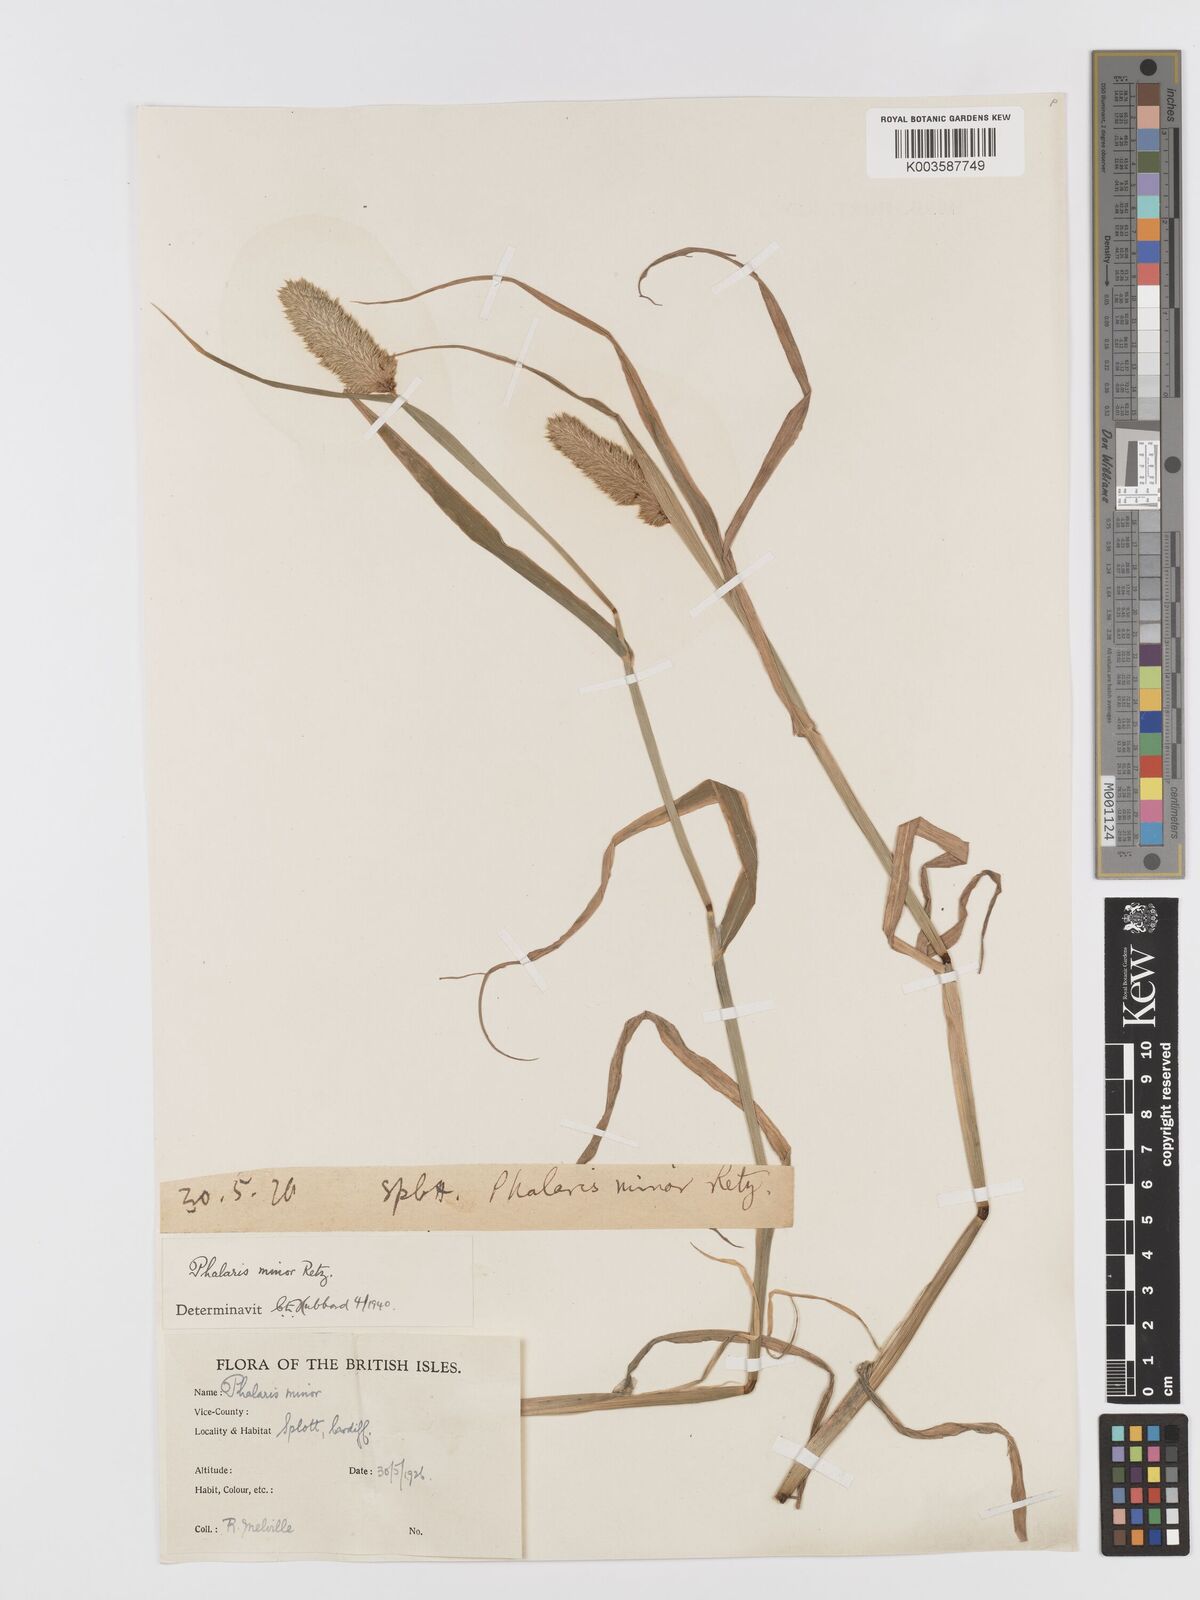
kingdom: Plantae
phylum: Tracheophyta
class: Liliopsida
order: Poales
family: Poaceae
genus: Phalaris
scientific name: Phalaris minor
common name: Littleseed canarygrass
